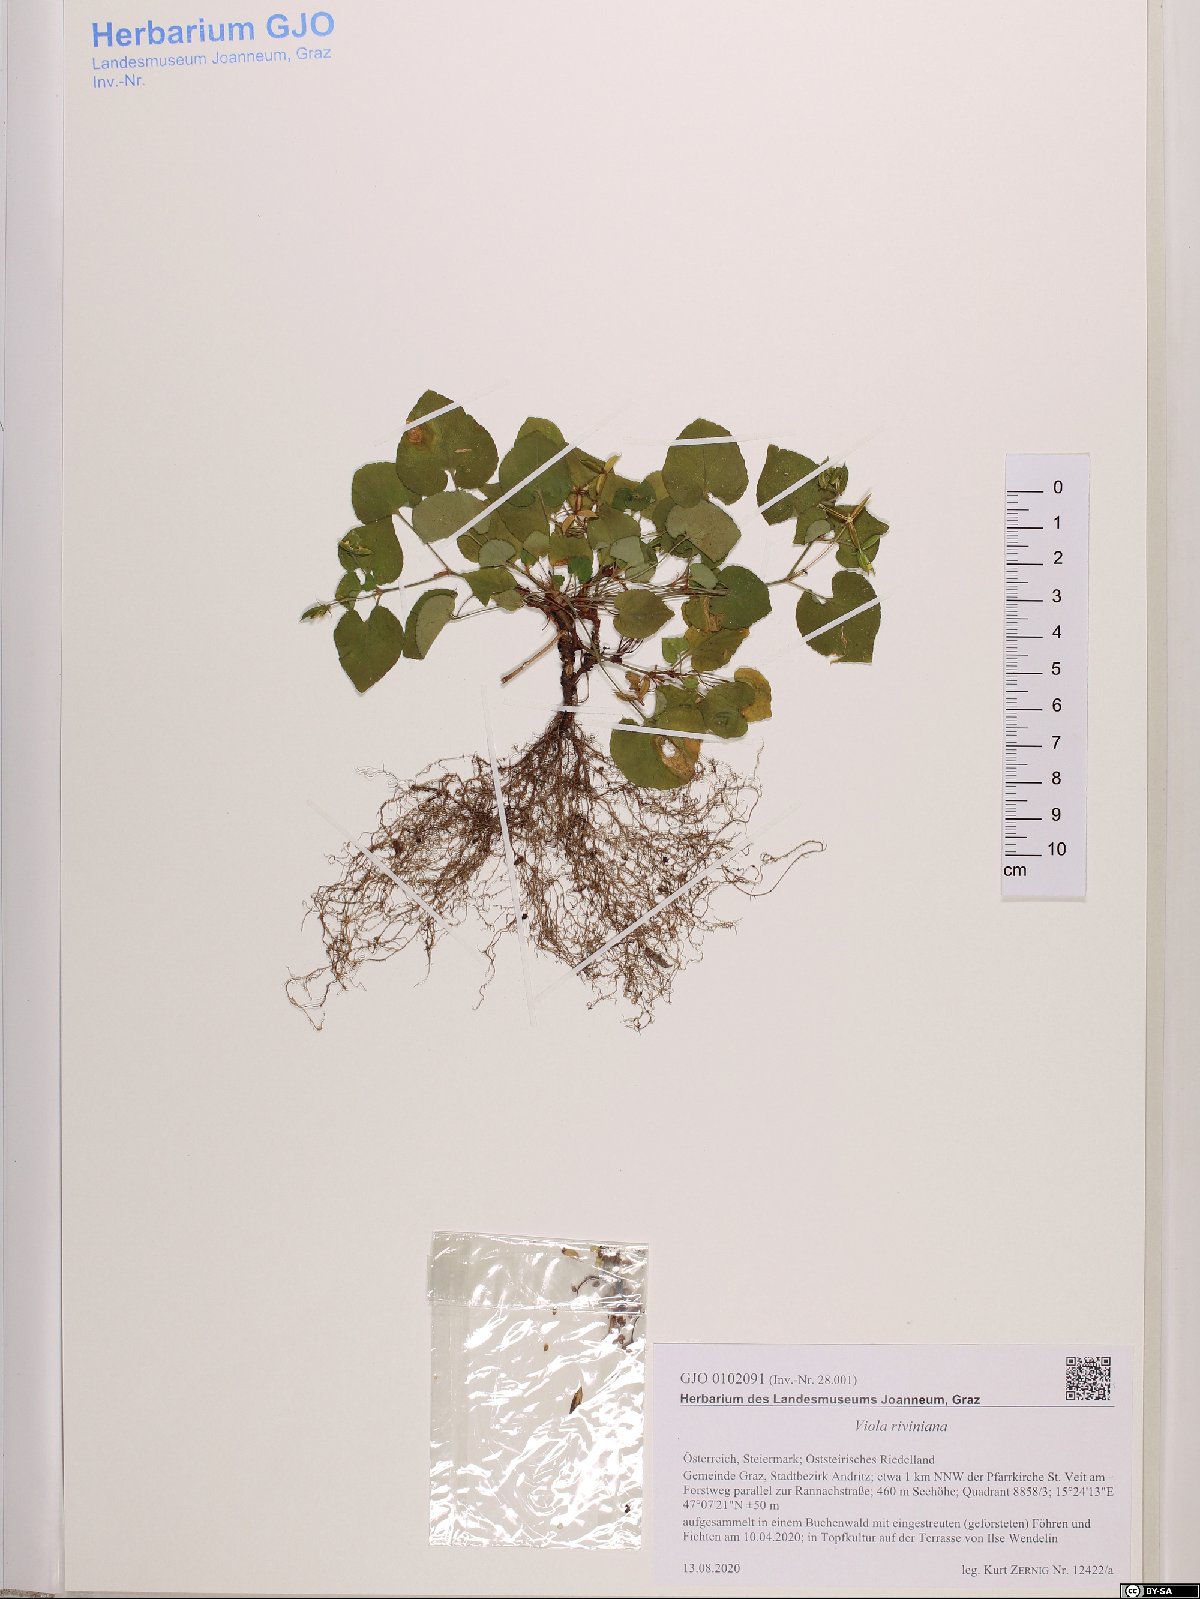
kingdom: Plantae
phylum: Tracheophyta
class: Magnoliopsida
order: Malpighiales
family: Violaceae
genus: Viola
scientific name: Viola riviniana
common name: Common dog-violet
